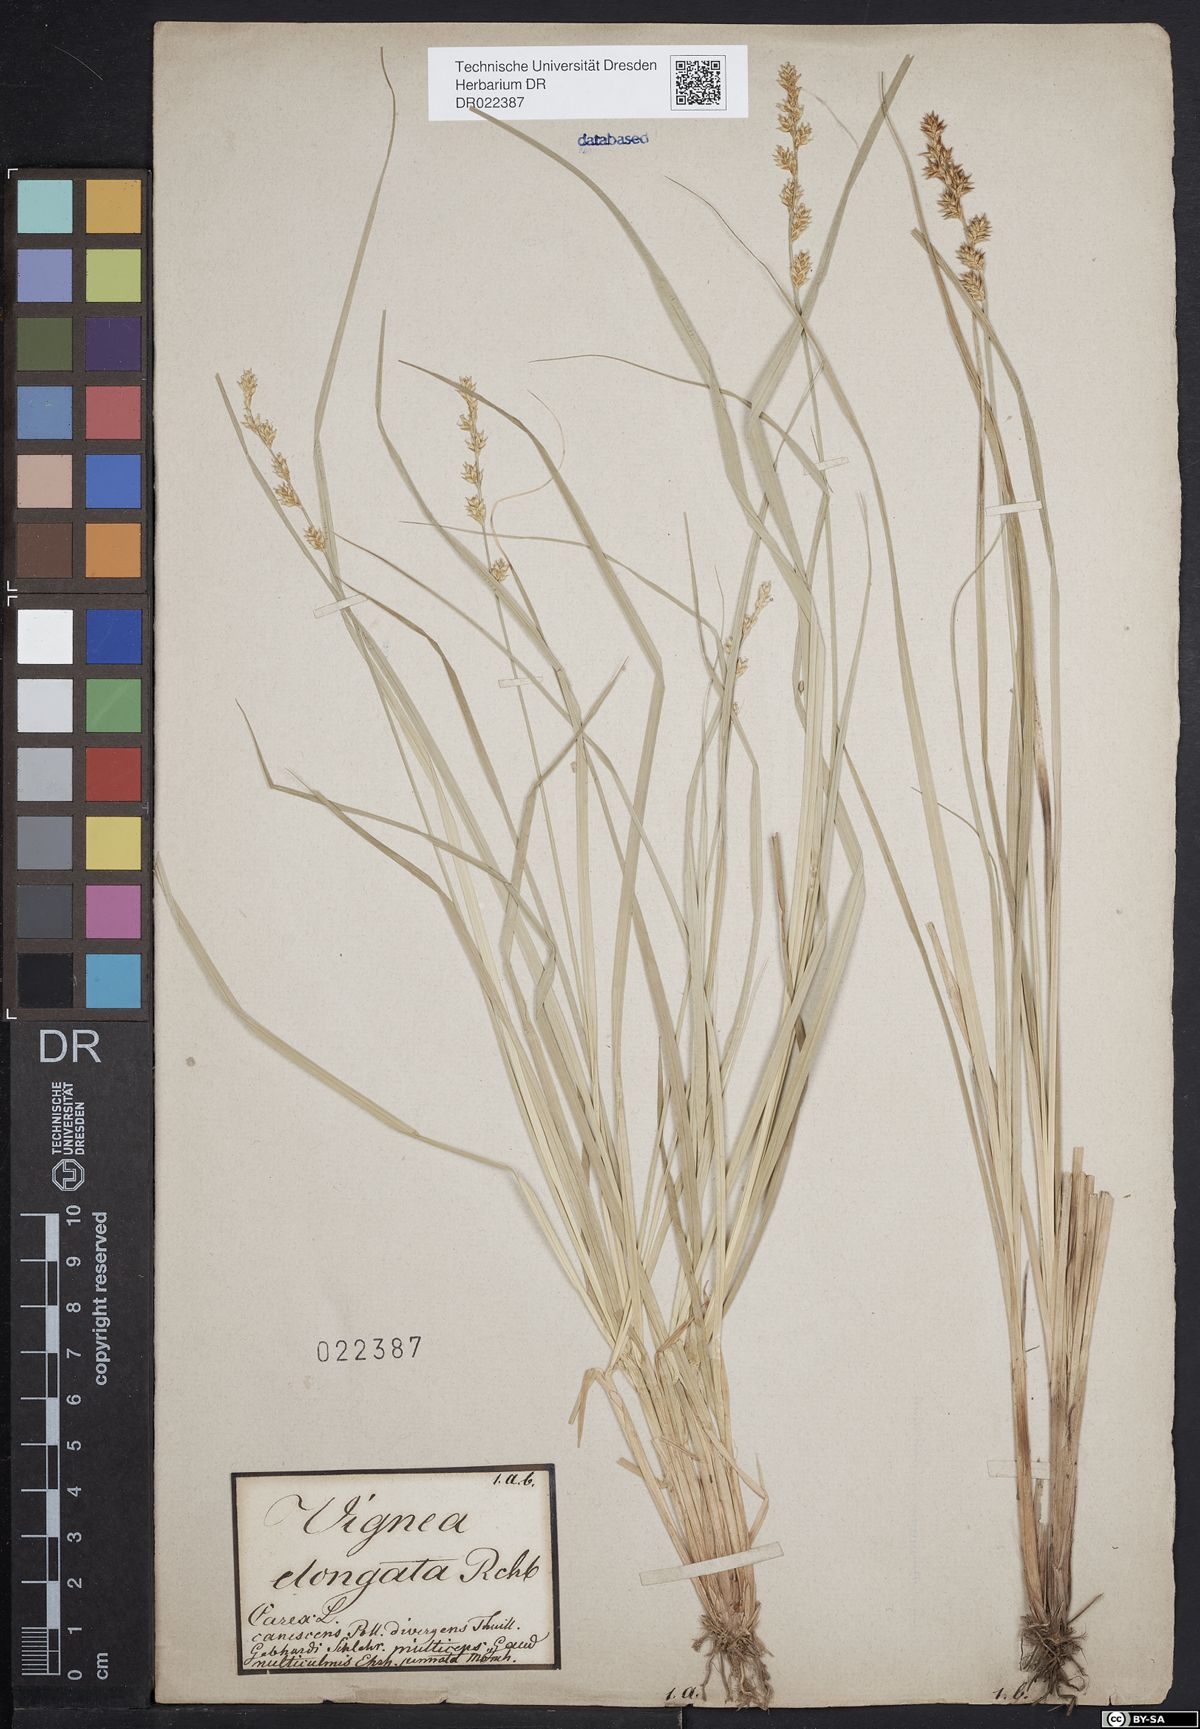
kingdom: Plantae
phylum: Tracheophyta
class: Liliopsida
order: Poales
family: Cyperaceae
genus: Carex
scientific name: Carex elongata
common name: Elongated sedge
